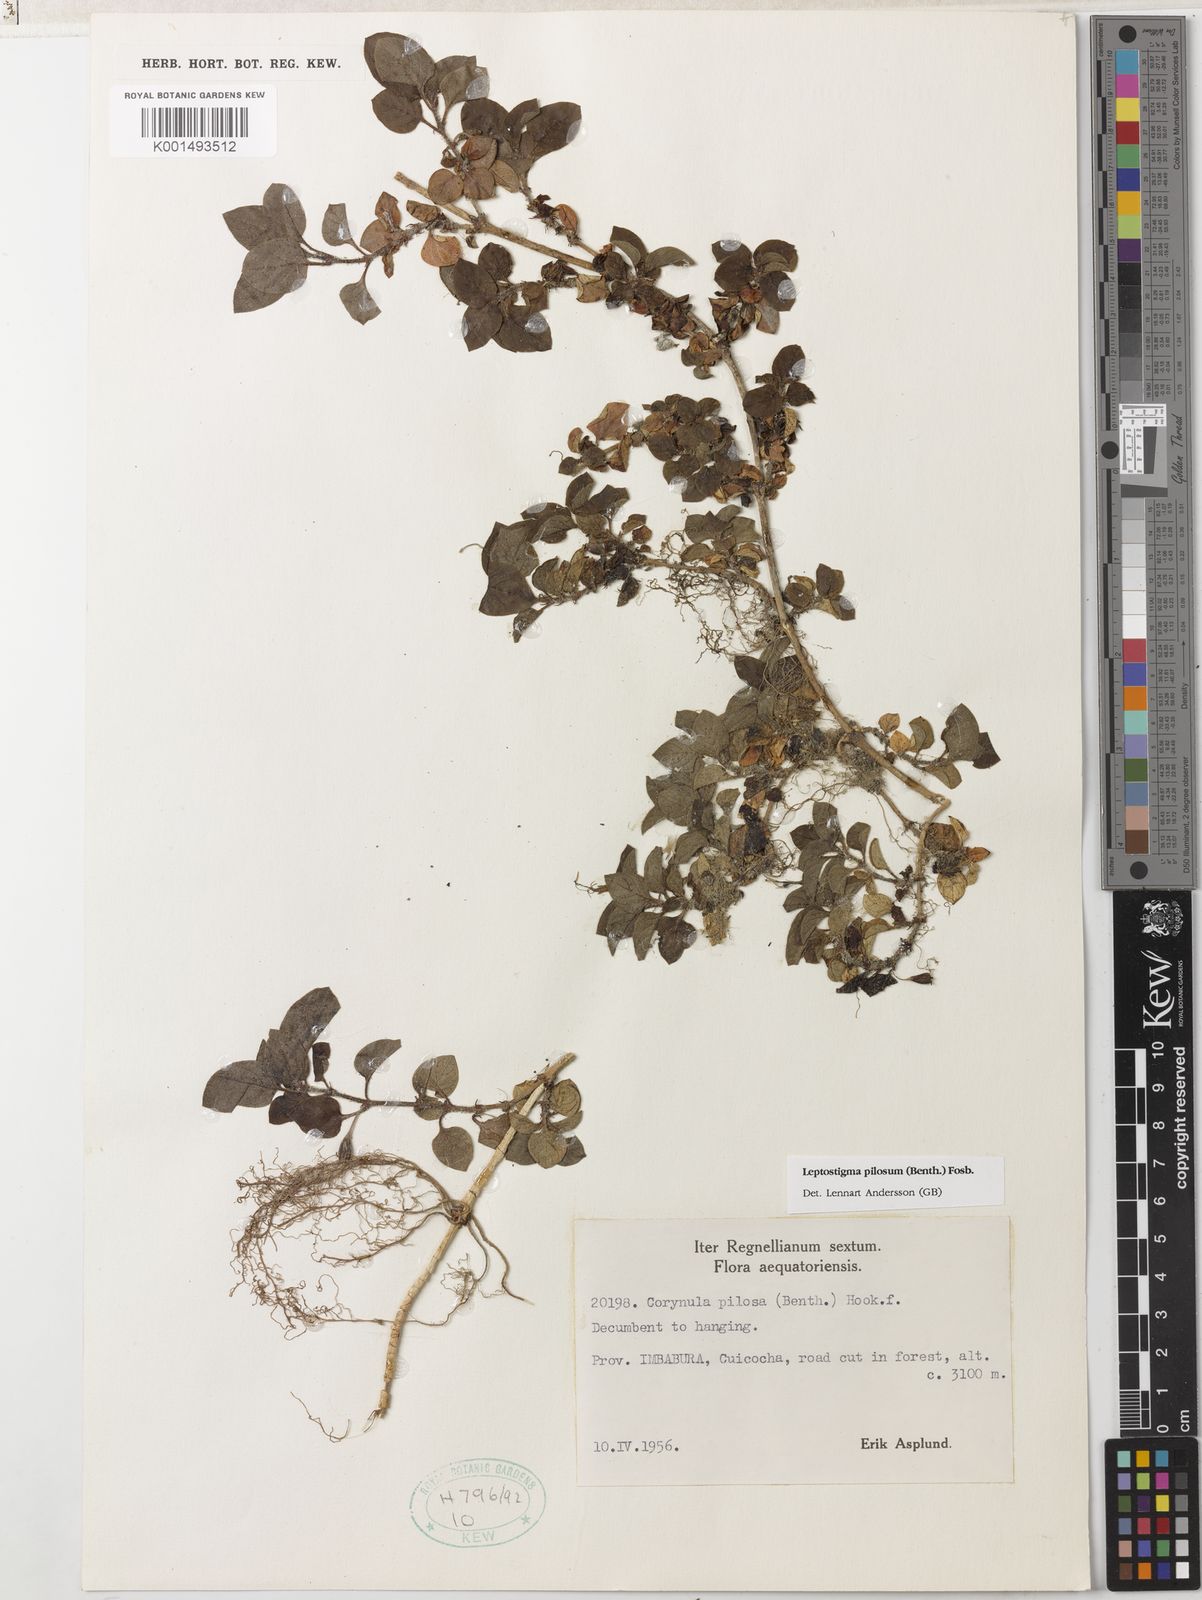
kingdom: Plantae
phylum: Tracheophyta
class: Magnoliopsida
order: Gentianales
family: Rubiaceae
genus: Leptostigma
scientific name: Leptostigma pilosum
